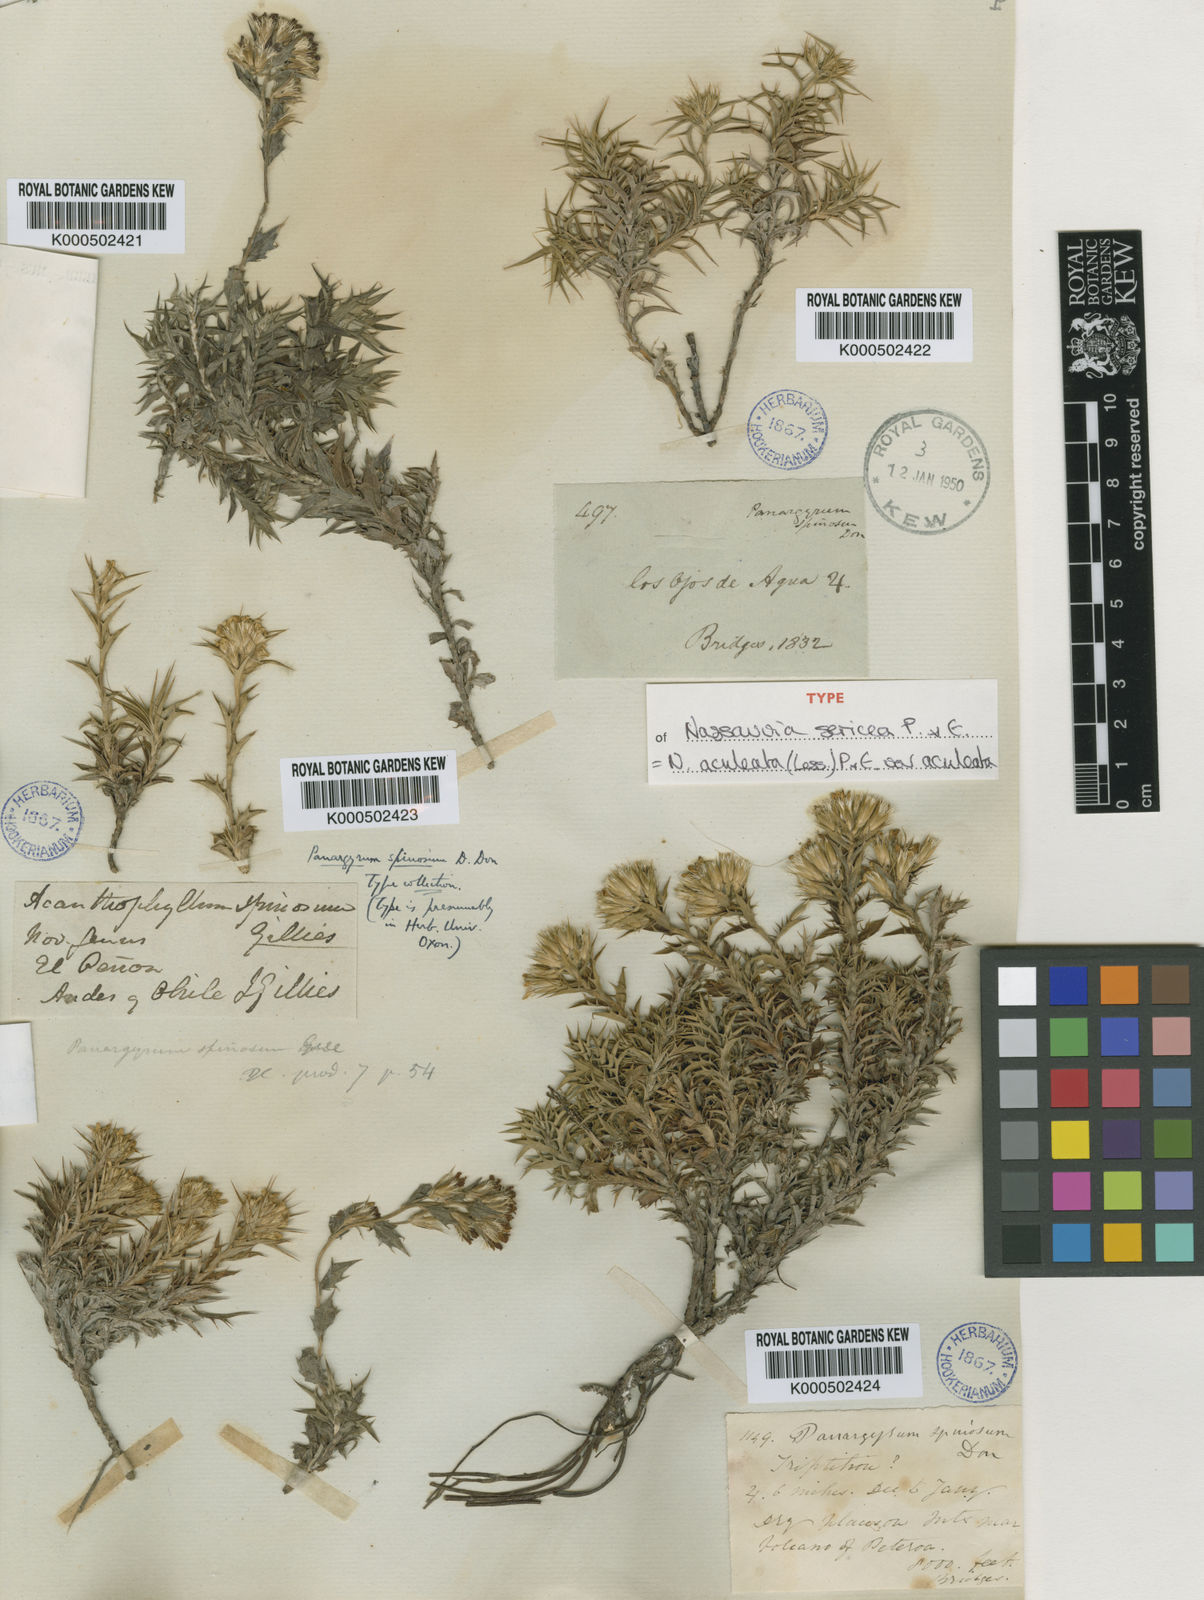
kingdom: Plantae
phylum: Tracheophyta
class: Magnoliopsida
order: Asterales
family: Asteraceae
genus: Nassauvia
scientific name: Nassauvia aculeata
